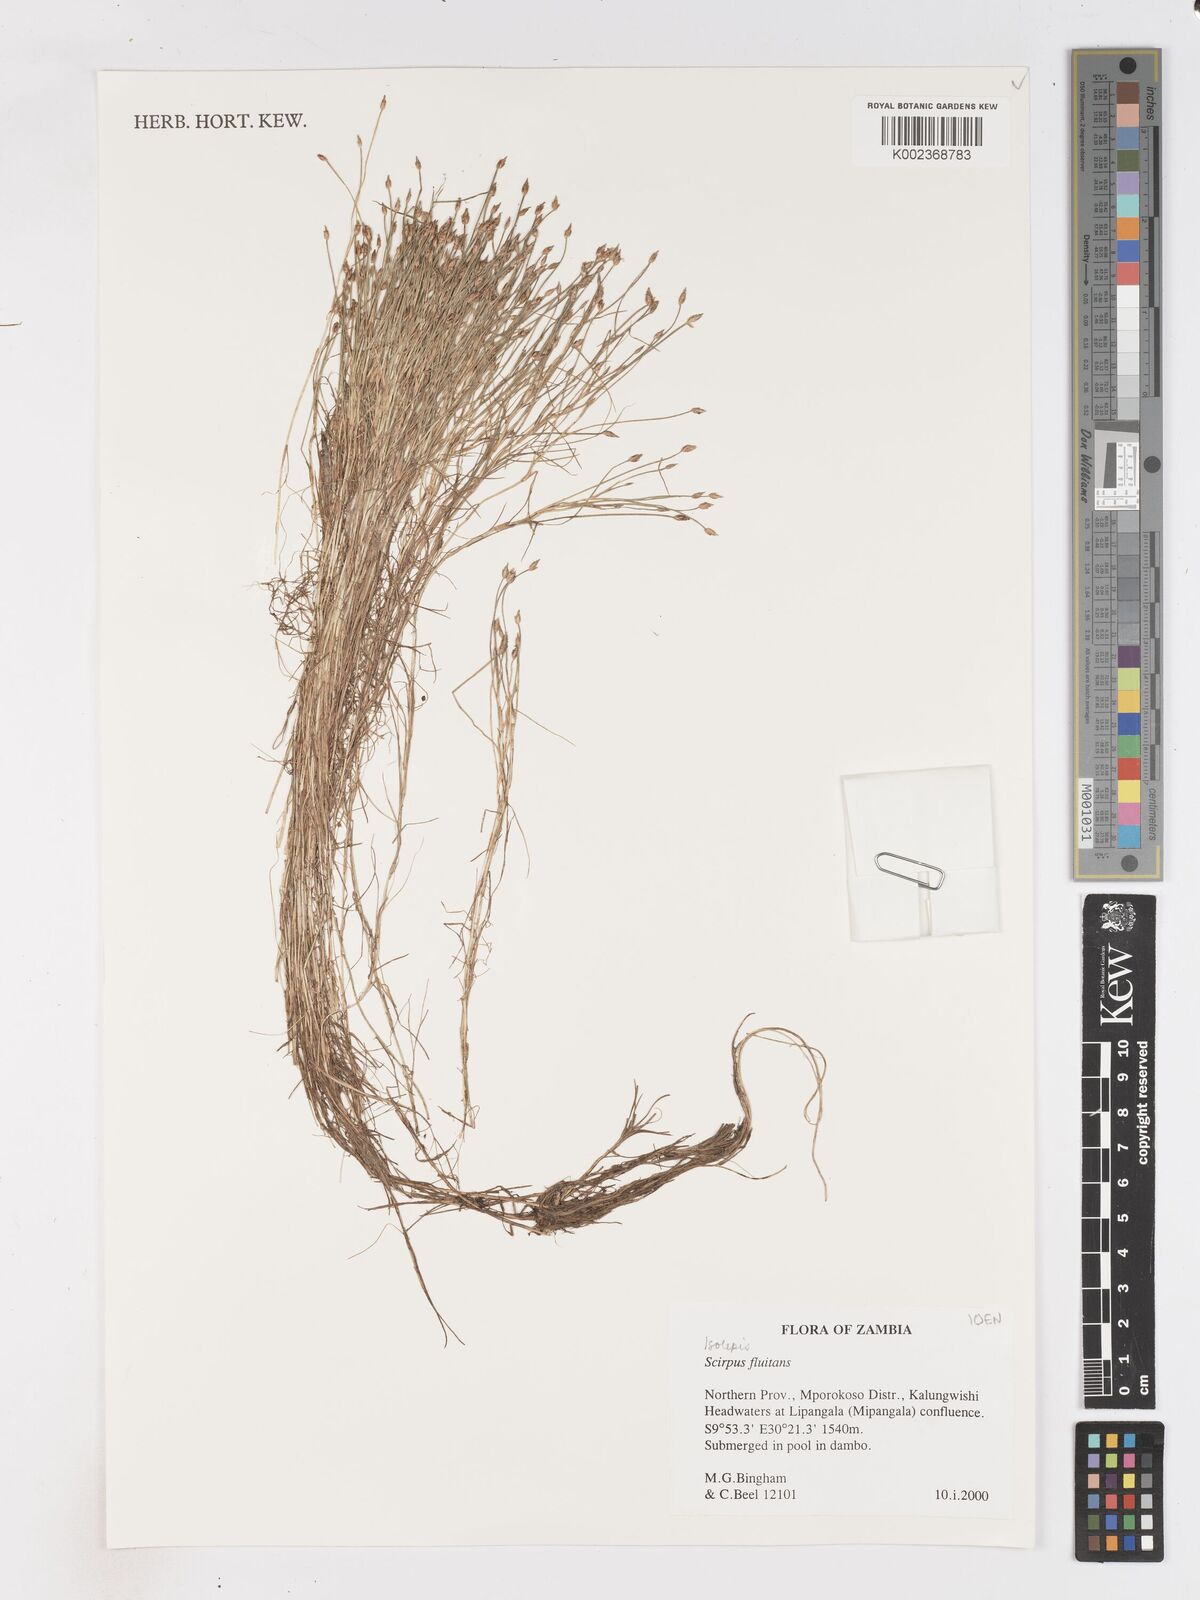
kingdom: Plantae
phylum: Tracheophyta
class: Liliopsida
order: Poales
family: Cyperaceae
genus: Isolepis
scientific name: Isolepis fluitans
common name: Floating club-rush
